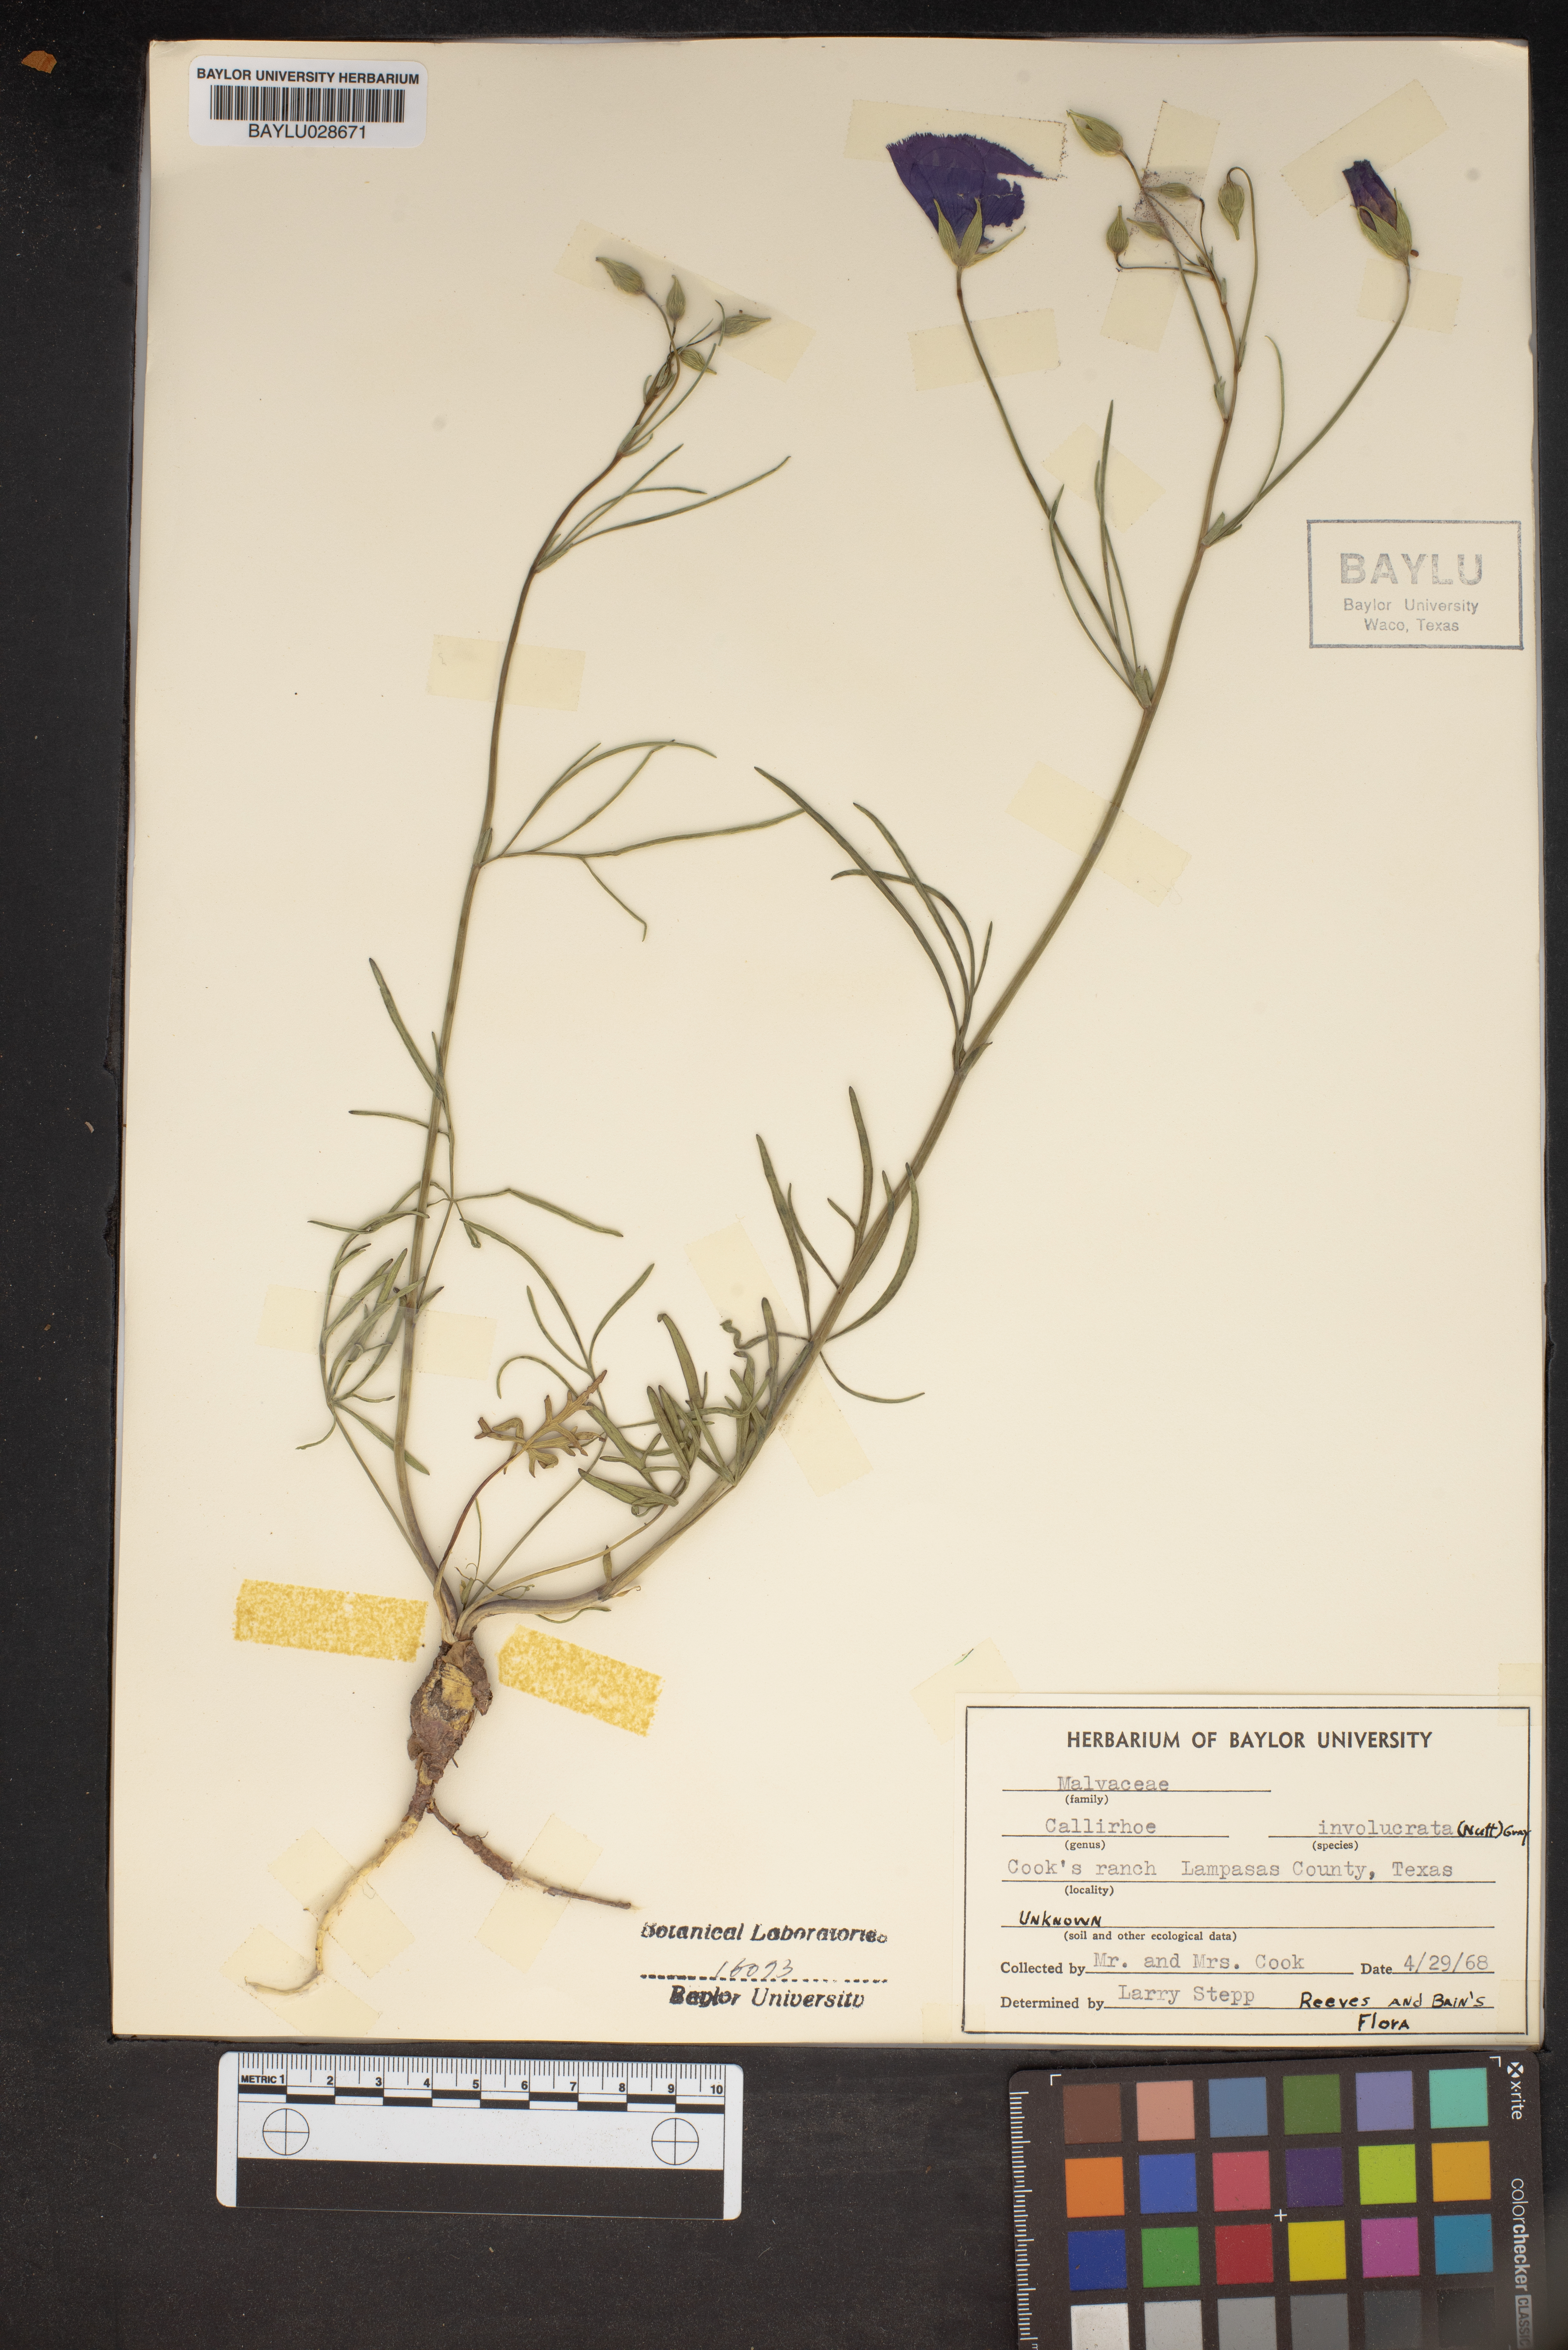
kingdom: Plantae
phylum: Tracheophyta
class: Magnoliopsida
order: Malvales
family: Malvaceae
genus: Callirhoe
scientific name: Callirhoe involucrata
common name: Purple poppy-mallow
